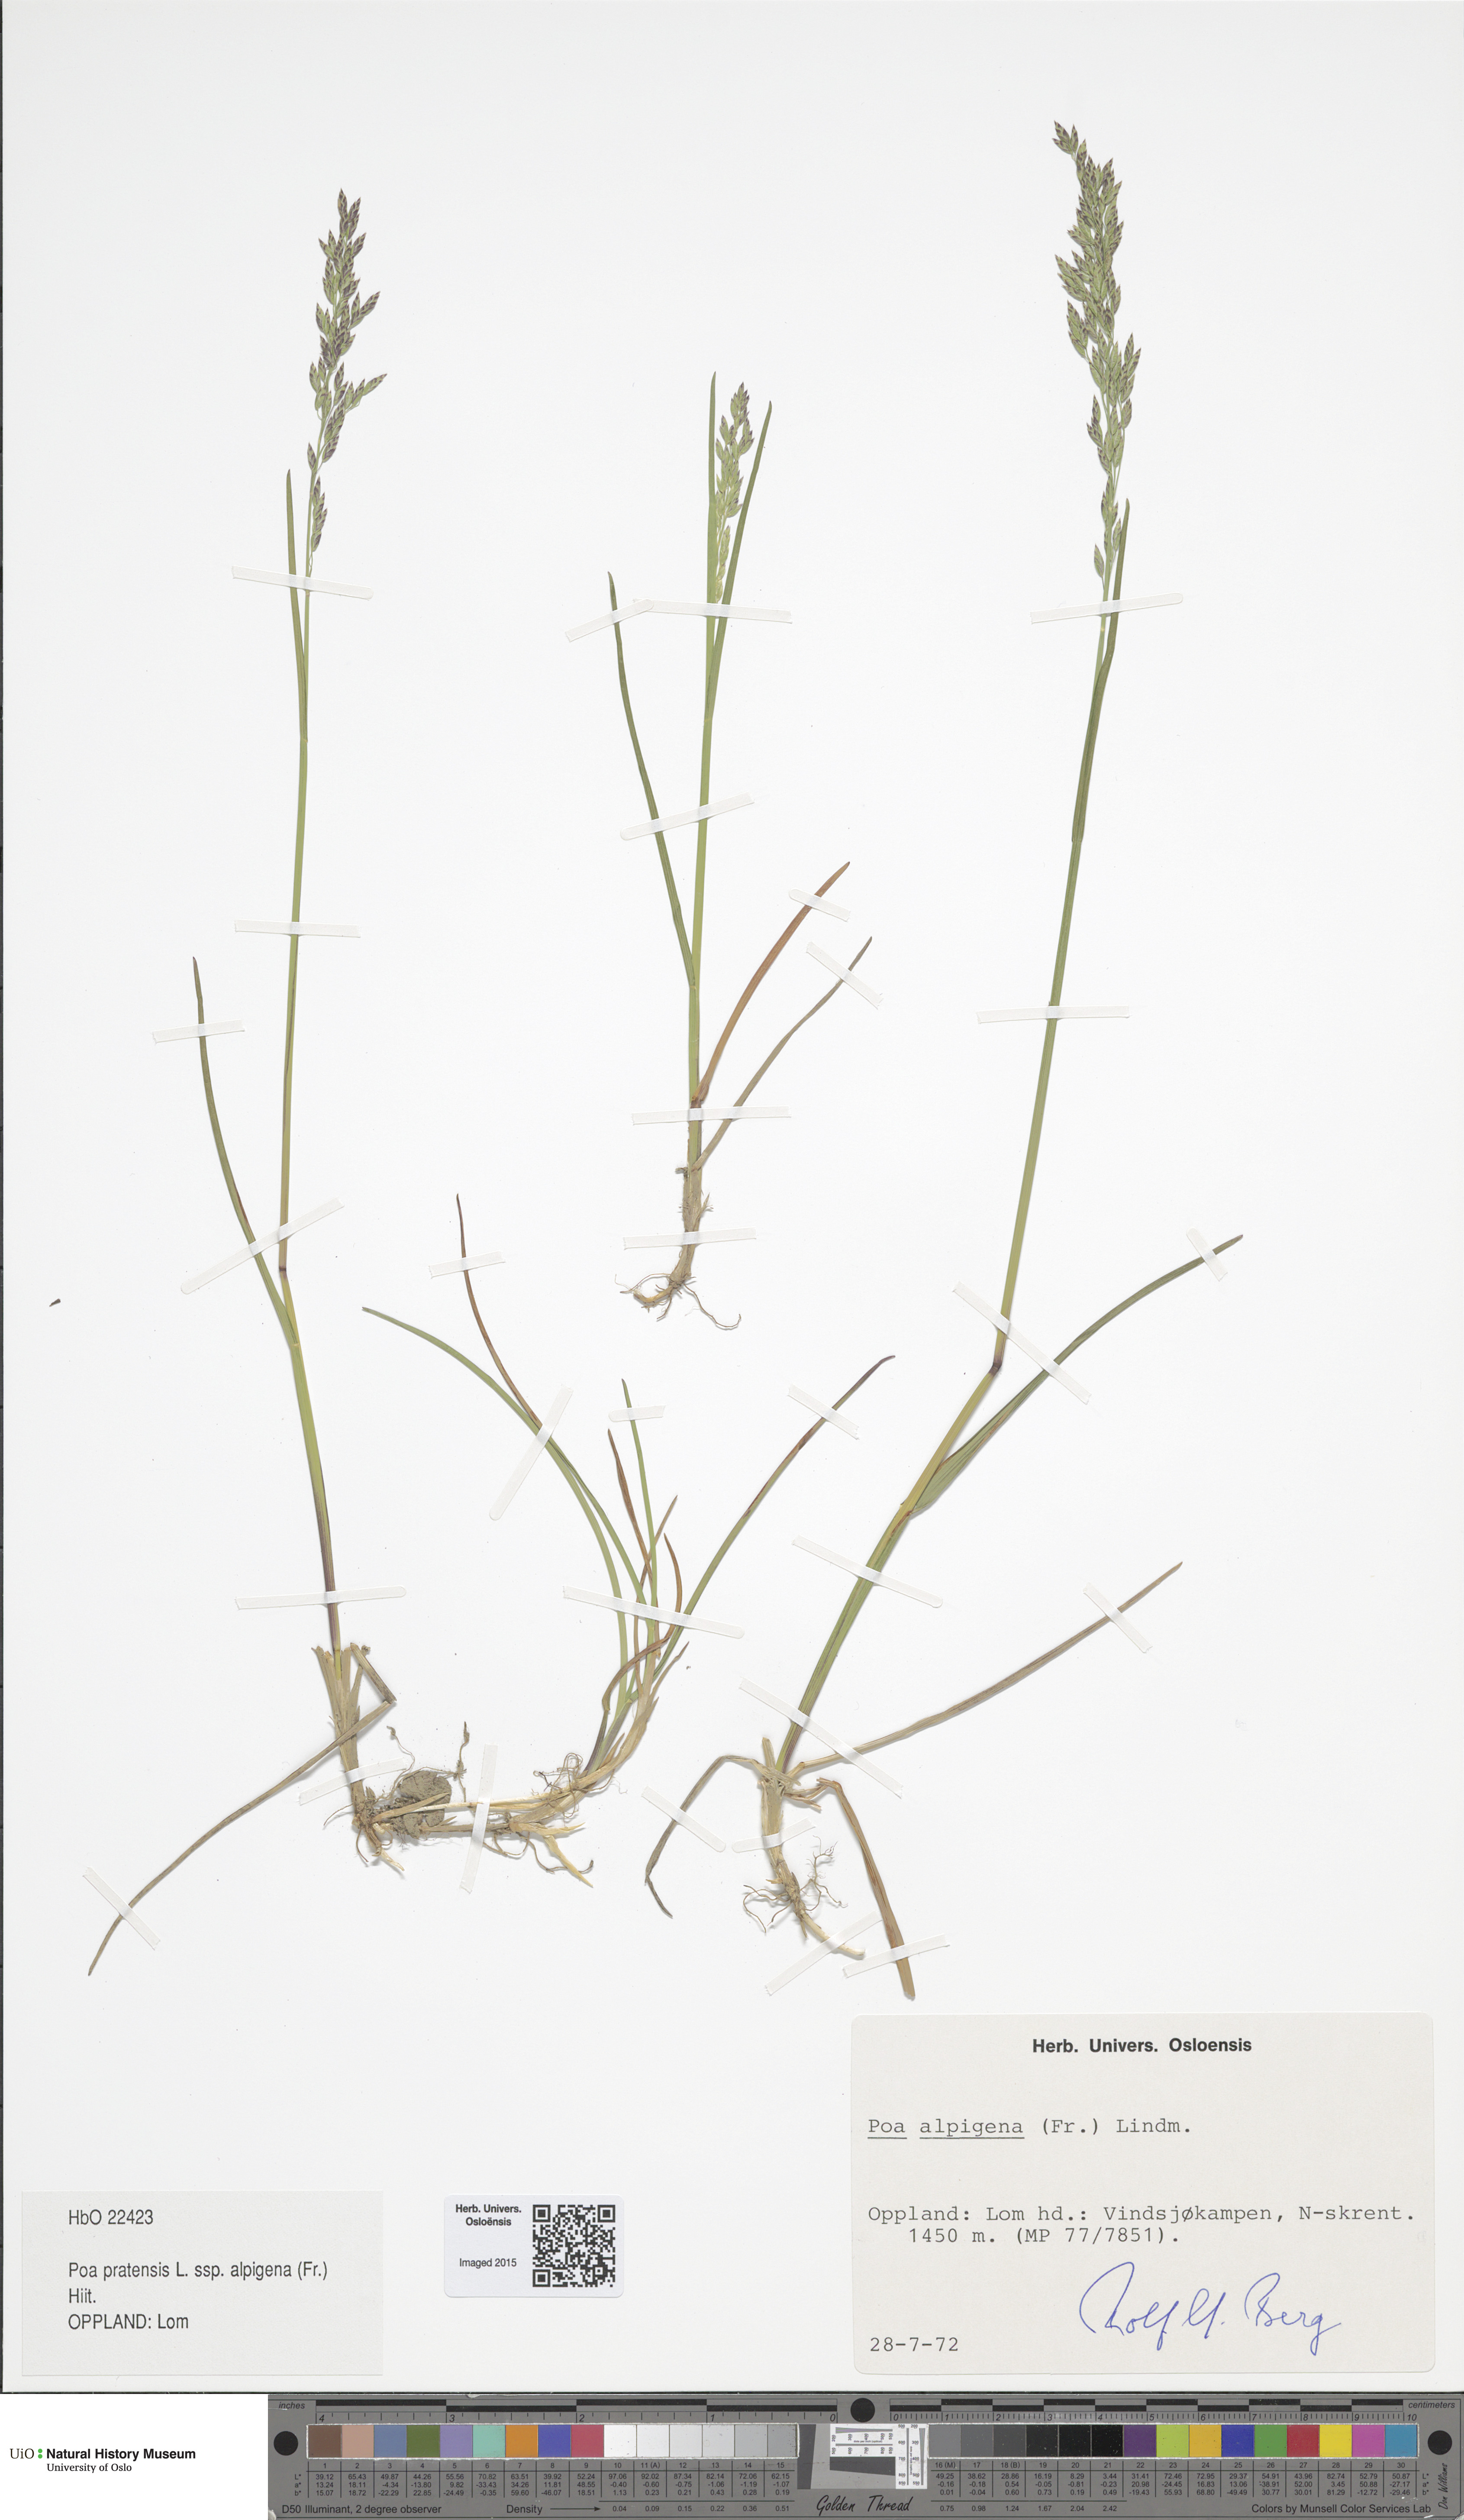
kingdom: Plantae
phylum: Tracheophyta
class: Liliopsida
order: Poales
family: Poaceae
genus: Poa
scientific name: Poa alpigena
